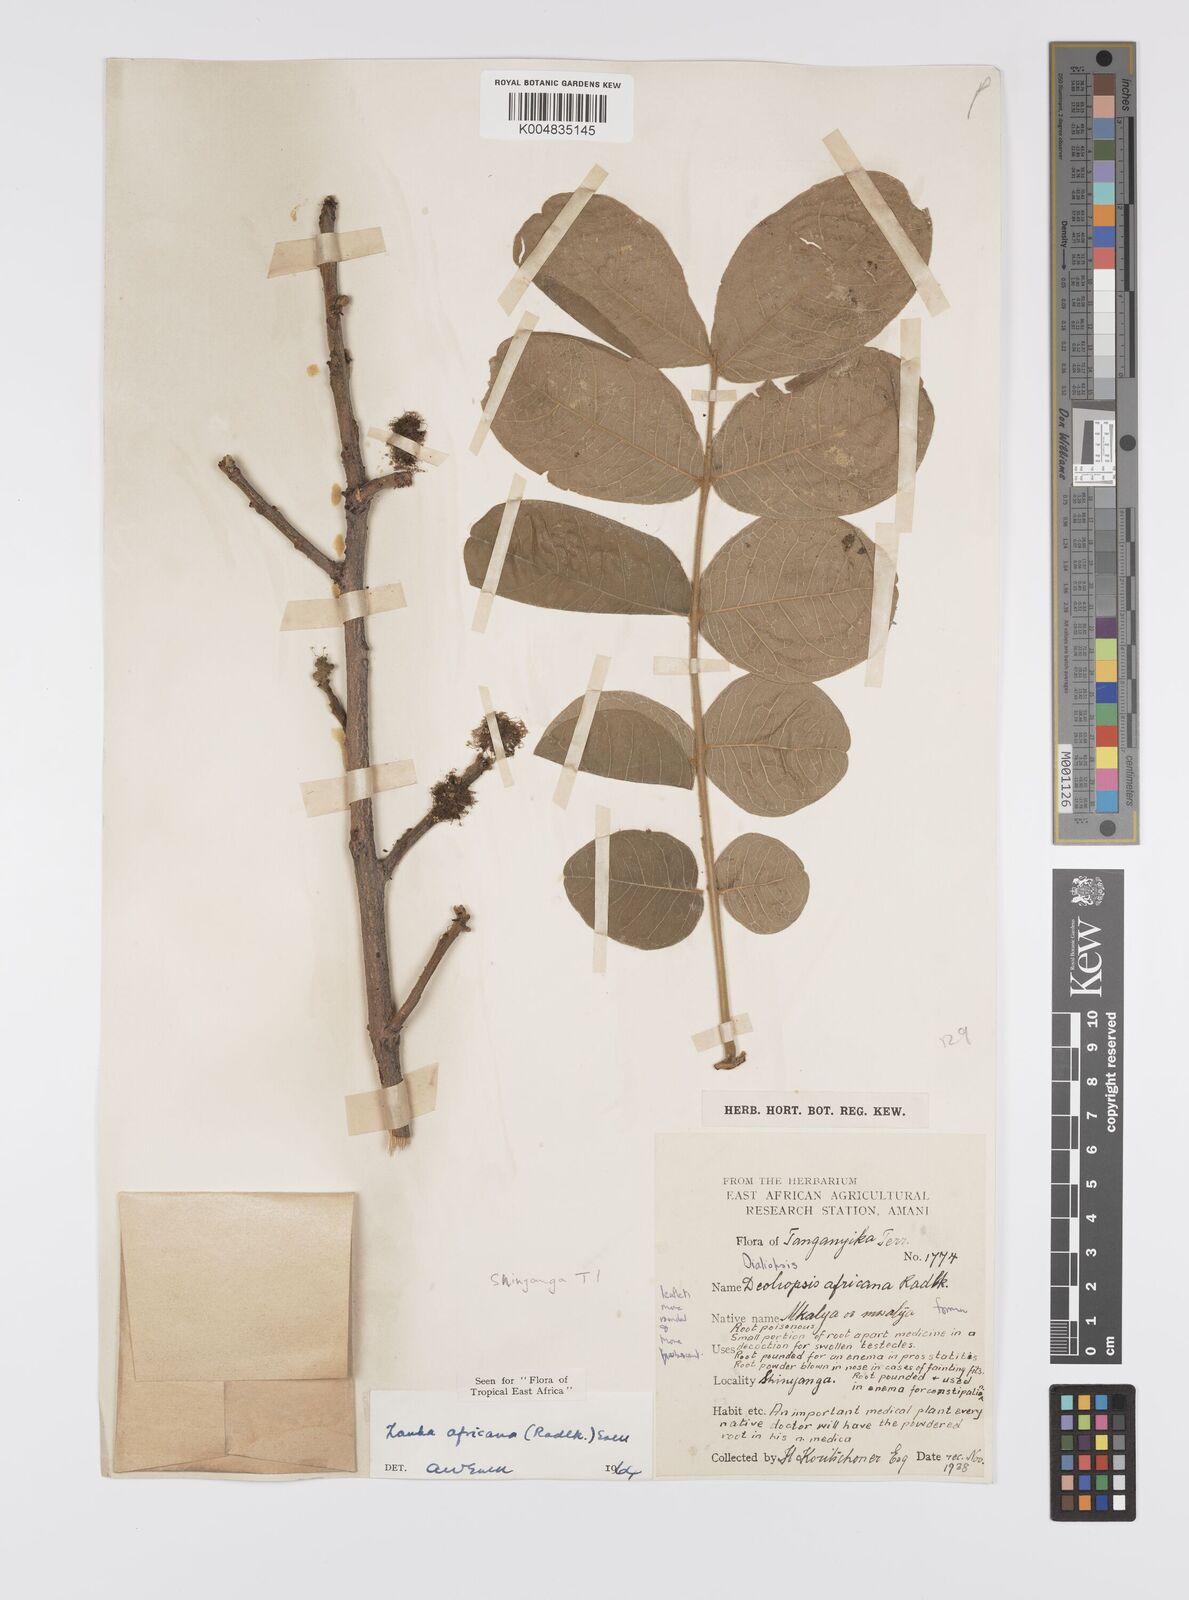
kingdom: Plantae
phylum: Tracheophyta
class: Magnoliopsida
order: Sapindales
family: Sapindaceae
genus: Zanha
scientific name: Zanha africana
